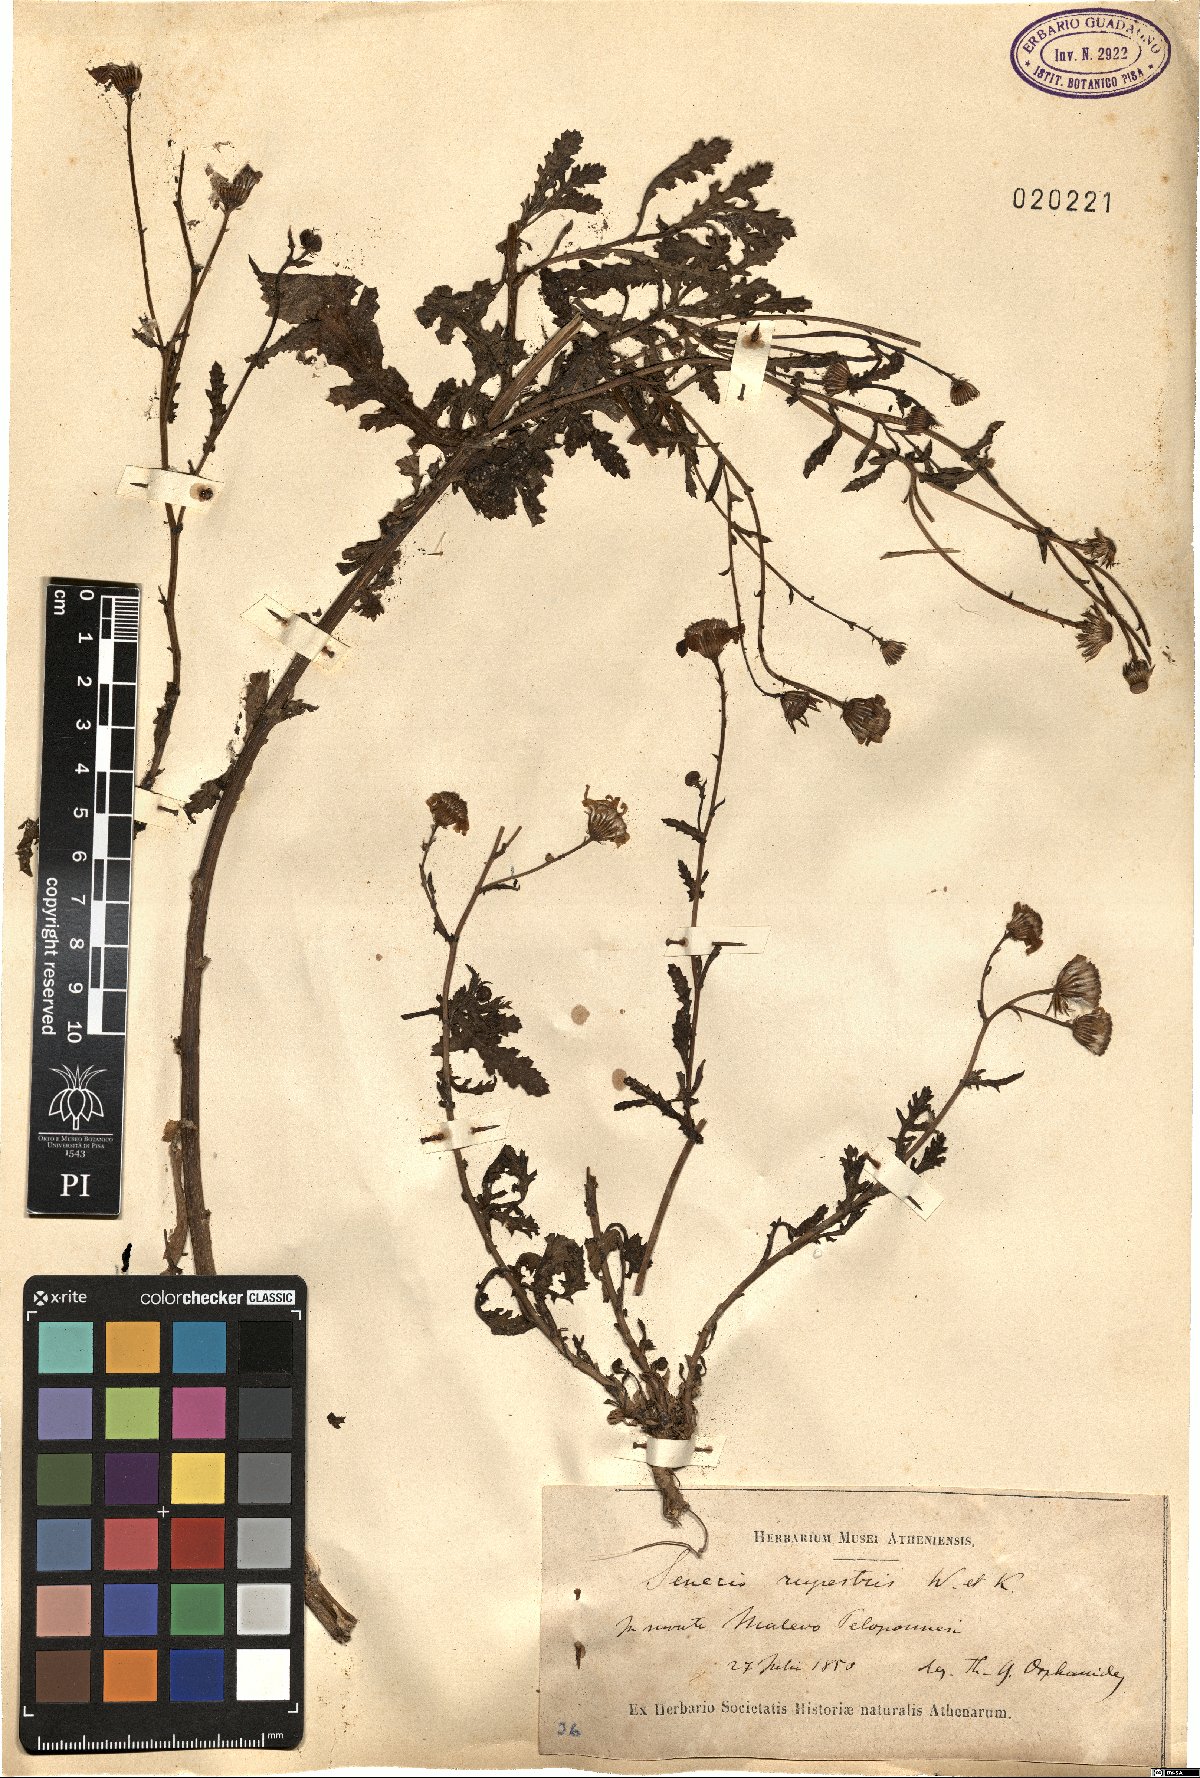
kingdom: Plantae
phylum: Tracheophyta
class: Magnoliopsida
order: Asterales
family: Asteraceae
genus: Senecio
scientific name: Senecio rupestris
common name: Rock ragwort
